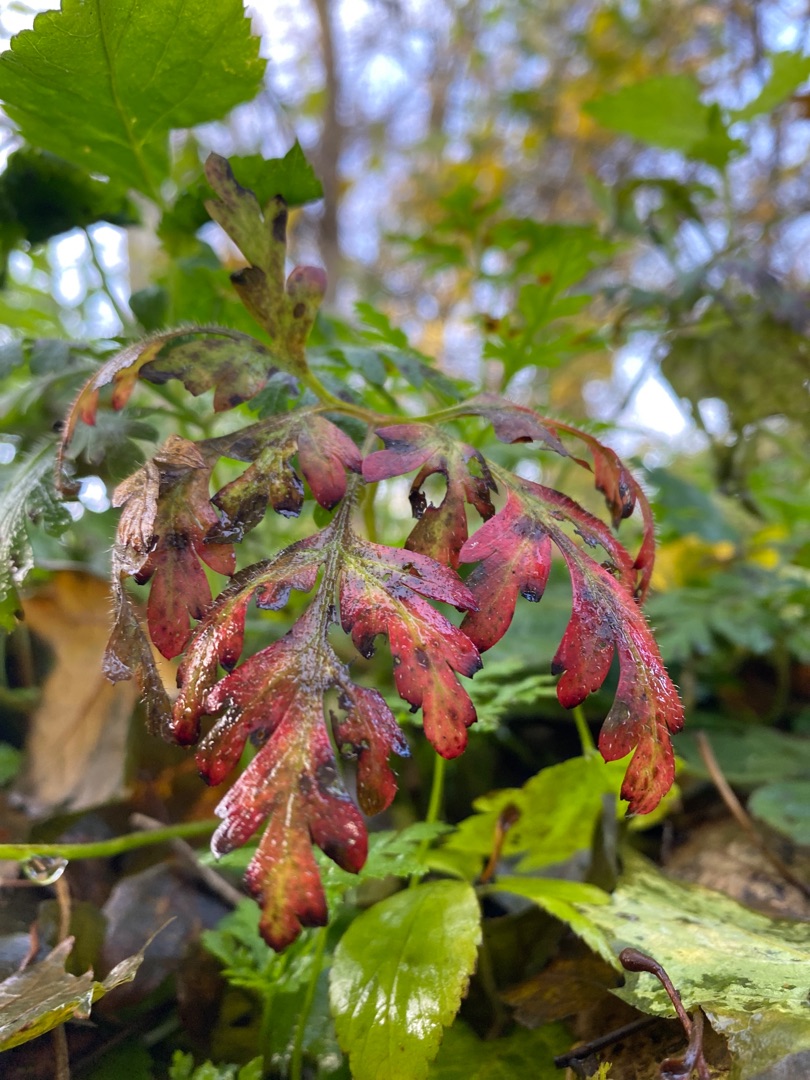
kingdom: Plantae
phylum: Tracheophyta
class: Magnoliopsida
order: Geraniales
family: Geraniaceae
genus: Geranium
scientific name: Geranium robertianum
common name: Stinkende storkenæb
